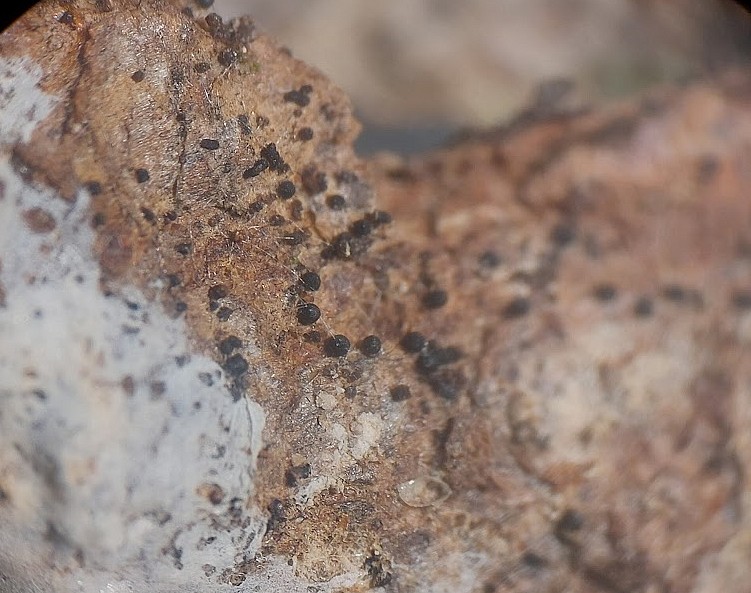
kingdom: Fungi
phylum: Ascomycota
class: Dothideomycetes
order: Tubeufiales
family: Tubeufiaceae
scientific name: Tubeufiaceae
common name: tyksækkrukkefamilien
